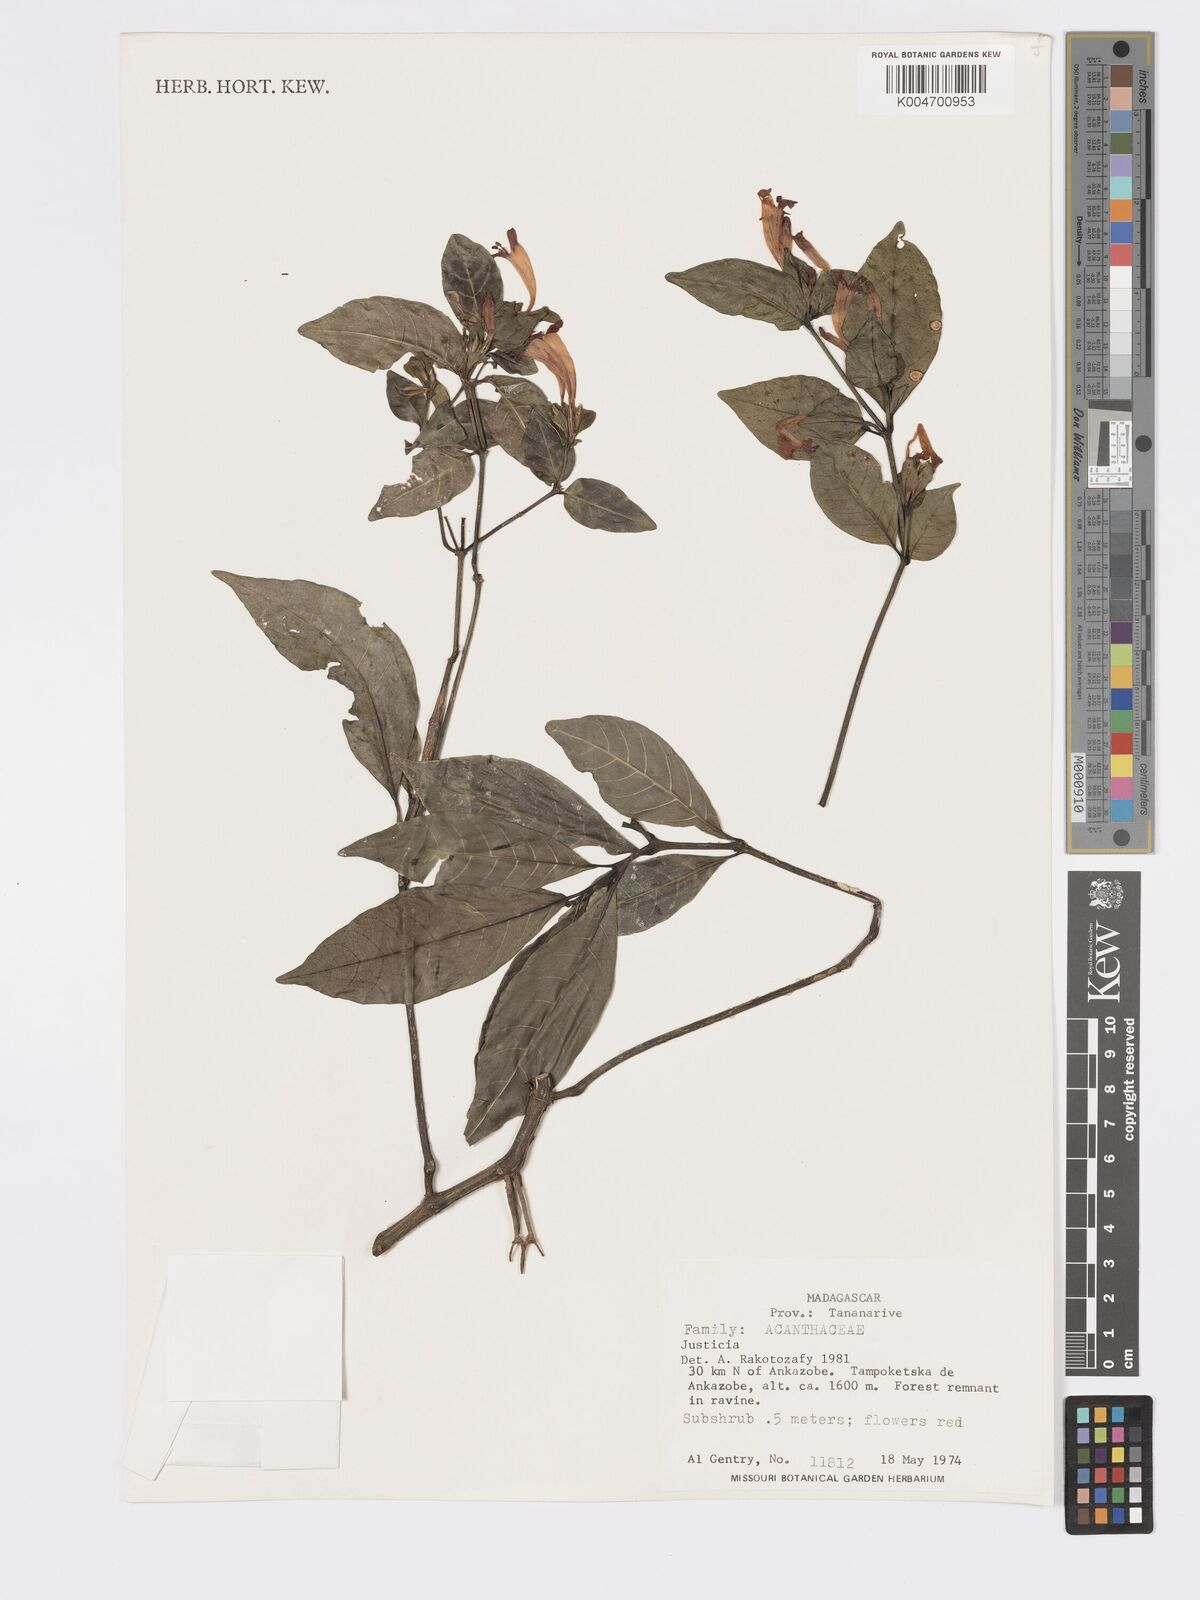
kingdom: Plantae
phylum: Tracheophyta
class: Magnoliopsida
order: Lamiales
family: Acanthaceae
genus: Hypoestes
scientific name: Hypoestes
